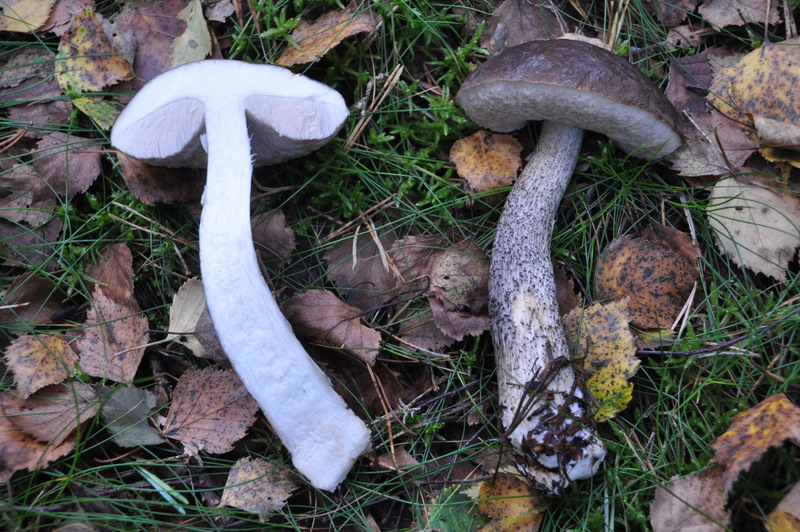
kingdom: Fungi
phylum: Basidiomycota
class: Agaricomycetes
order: Boletales
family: Boletaceae
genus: Leccinum
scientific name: Leccinum scabrum
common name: brun skælrørhat
